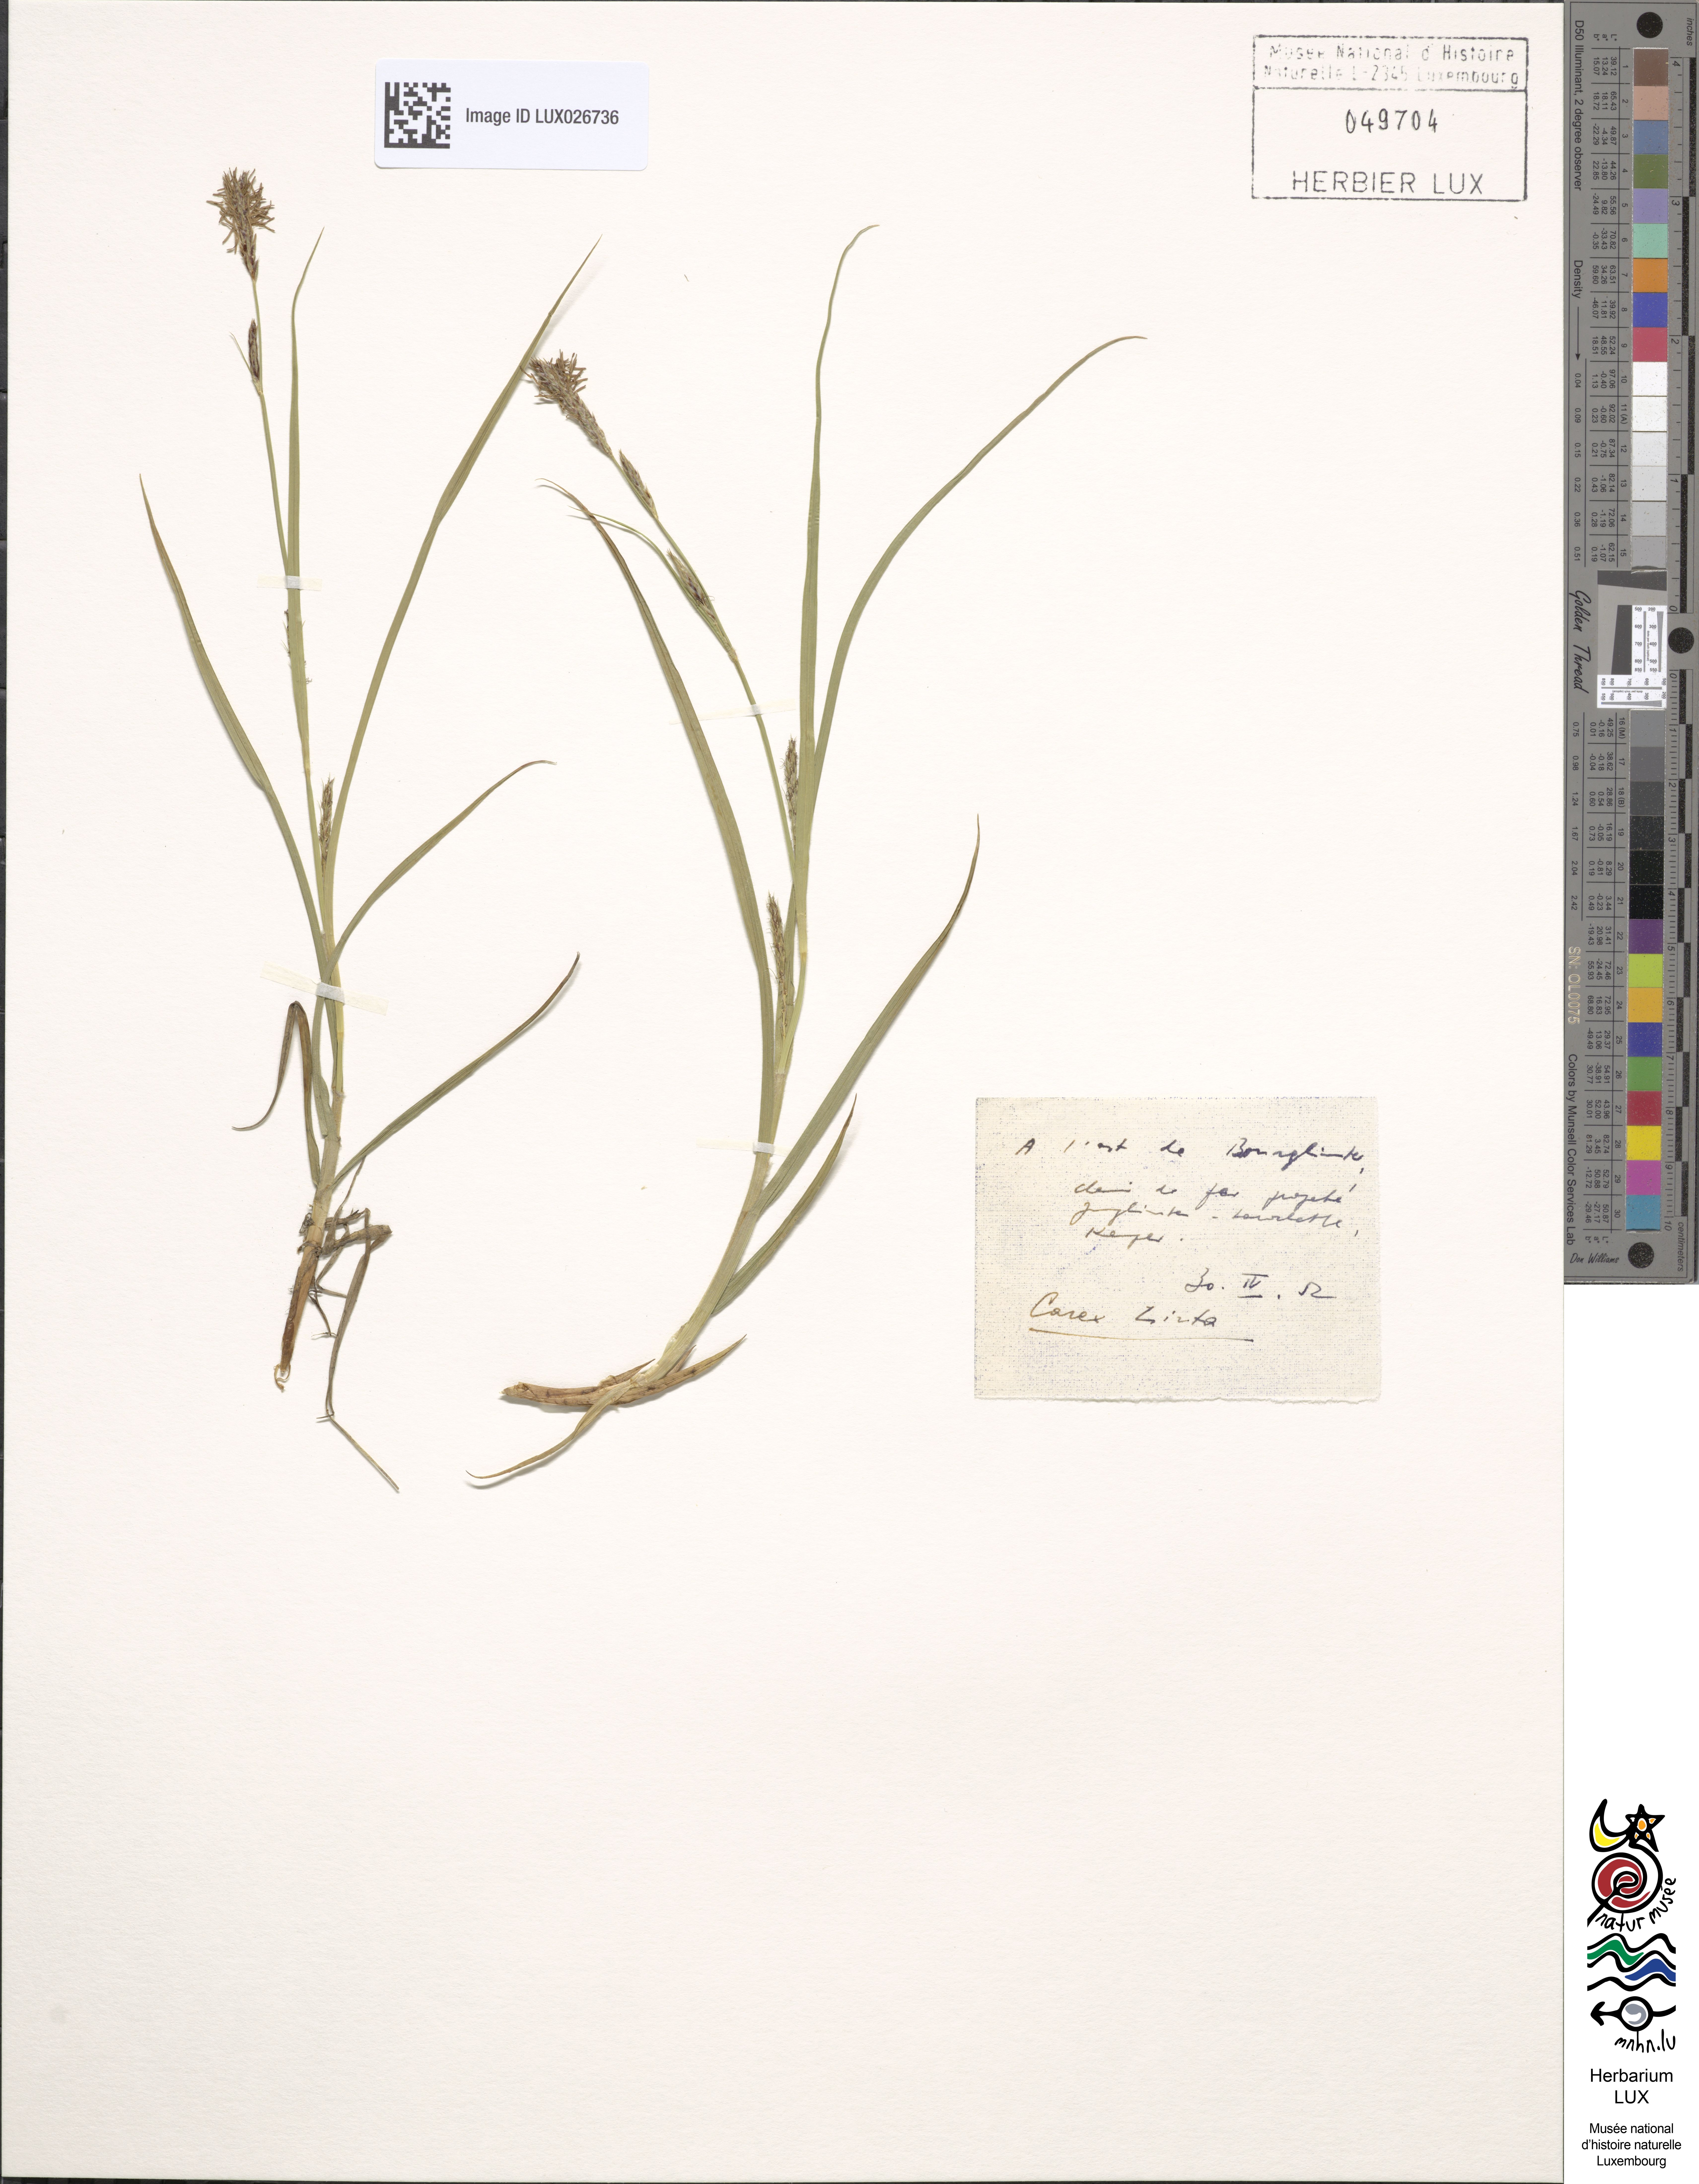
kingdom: Plantae
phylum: Tracheophyta
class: Liliopsida
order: Poales
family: Cyperaceae
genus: Carex
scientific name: Carex hirta
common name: Hairy sedge
